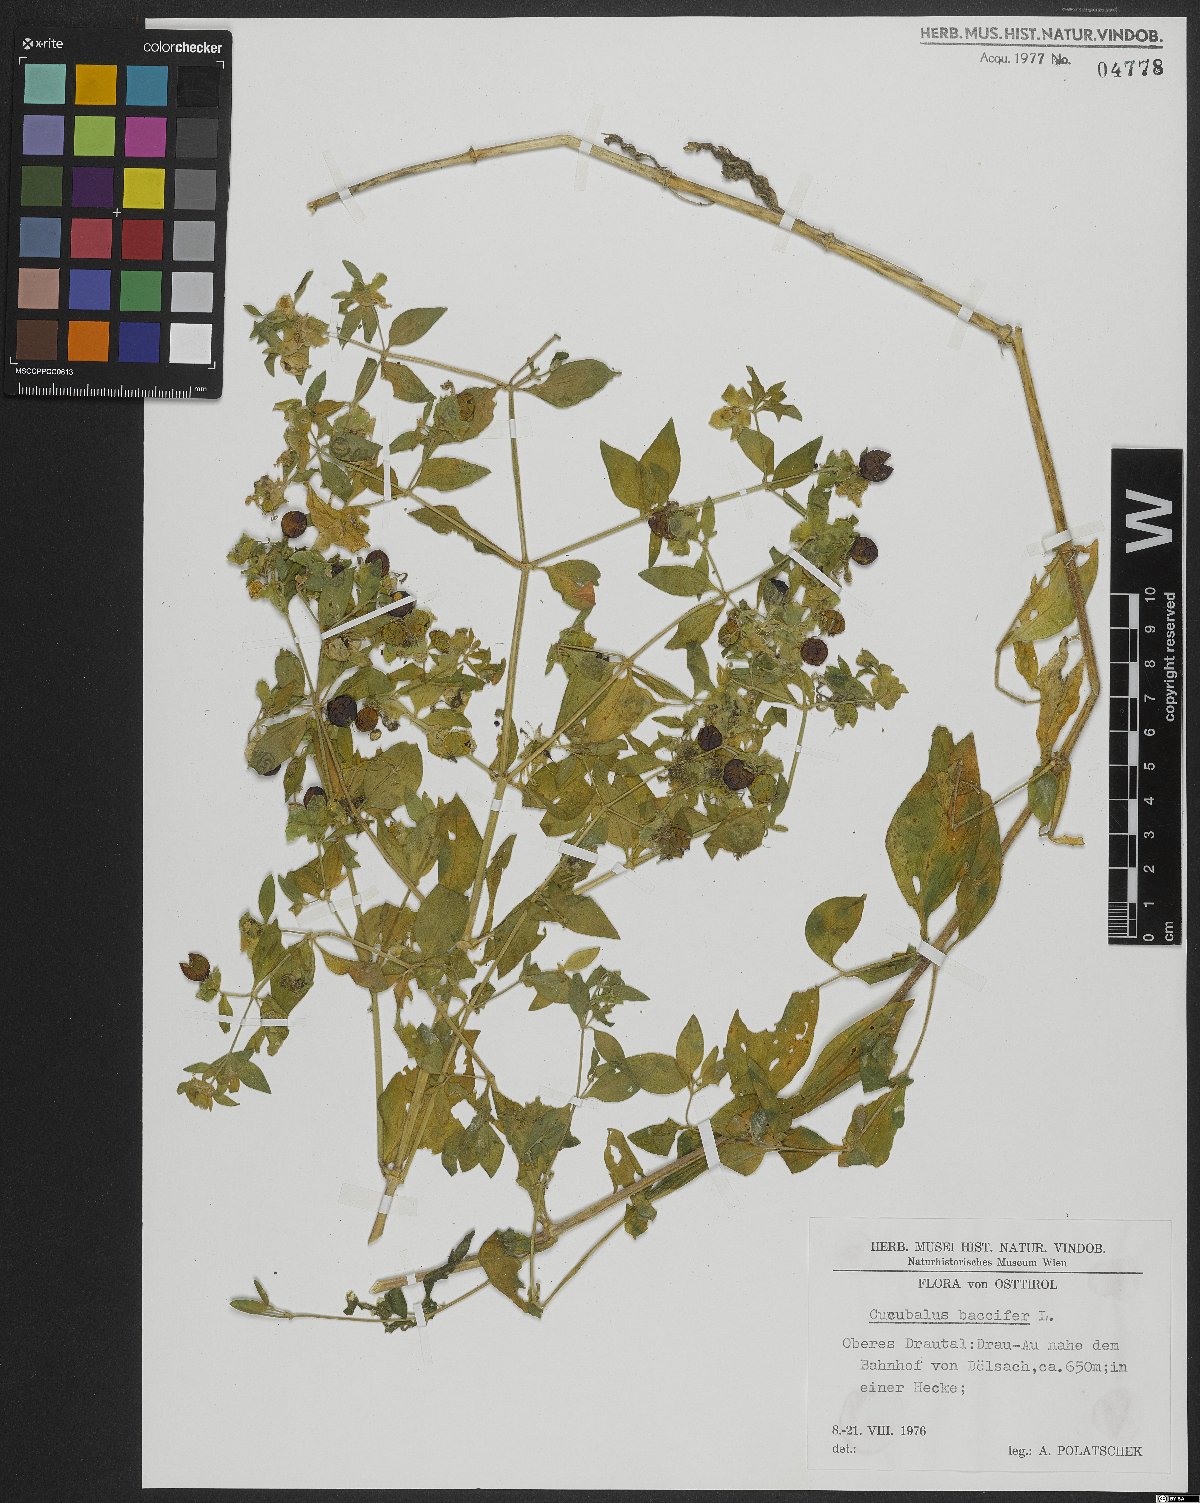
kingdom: Plantae
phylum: Tracheophyta
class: Magnoliopsida
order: Caryophyllales
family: Caryophyllaceae
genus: Silene
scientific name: Silene baccifera
